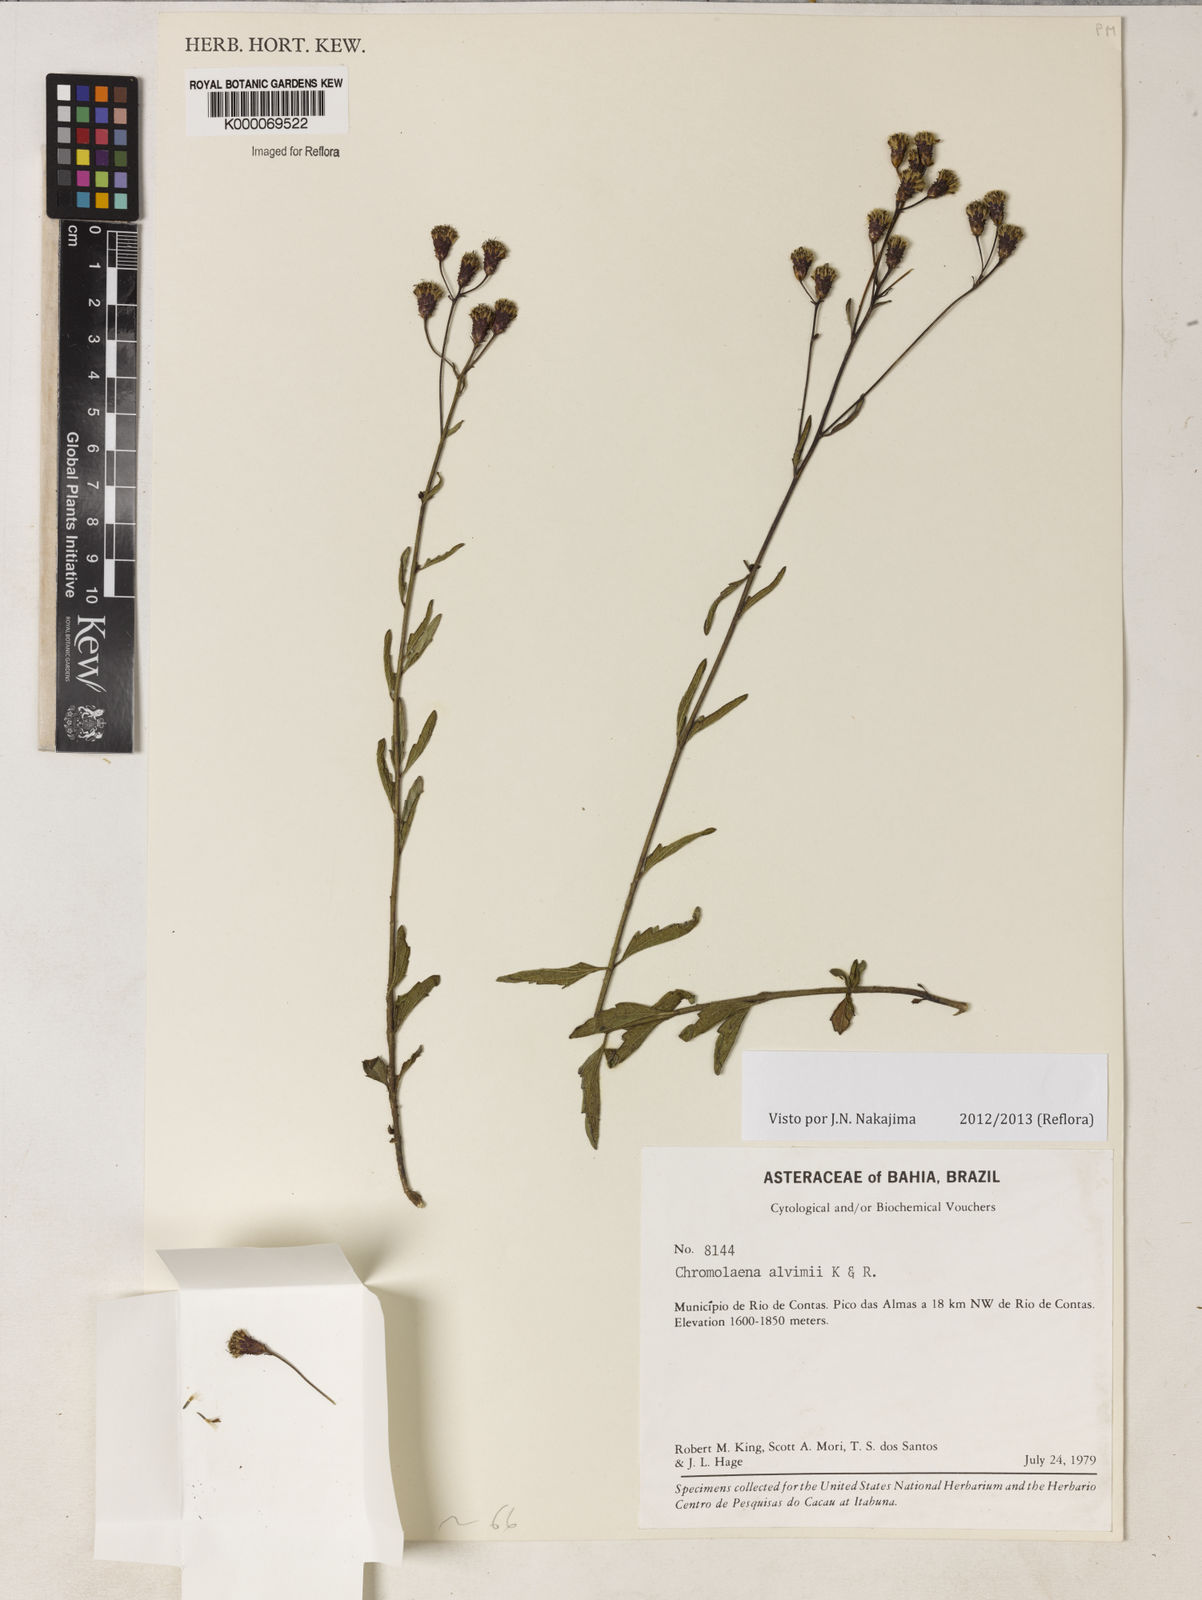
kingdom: Plantae
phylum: Tracheophyta
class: Magnoliopsida
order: Asterales
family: Asteraceae
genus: Chromolaena
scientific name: Chromolaena alvimii
